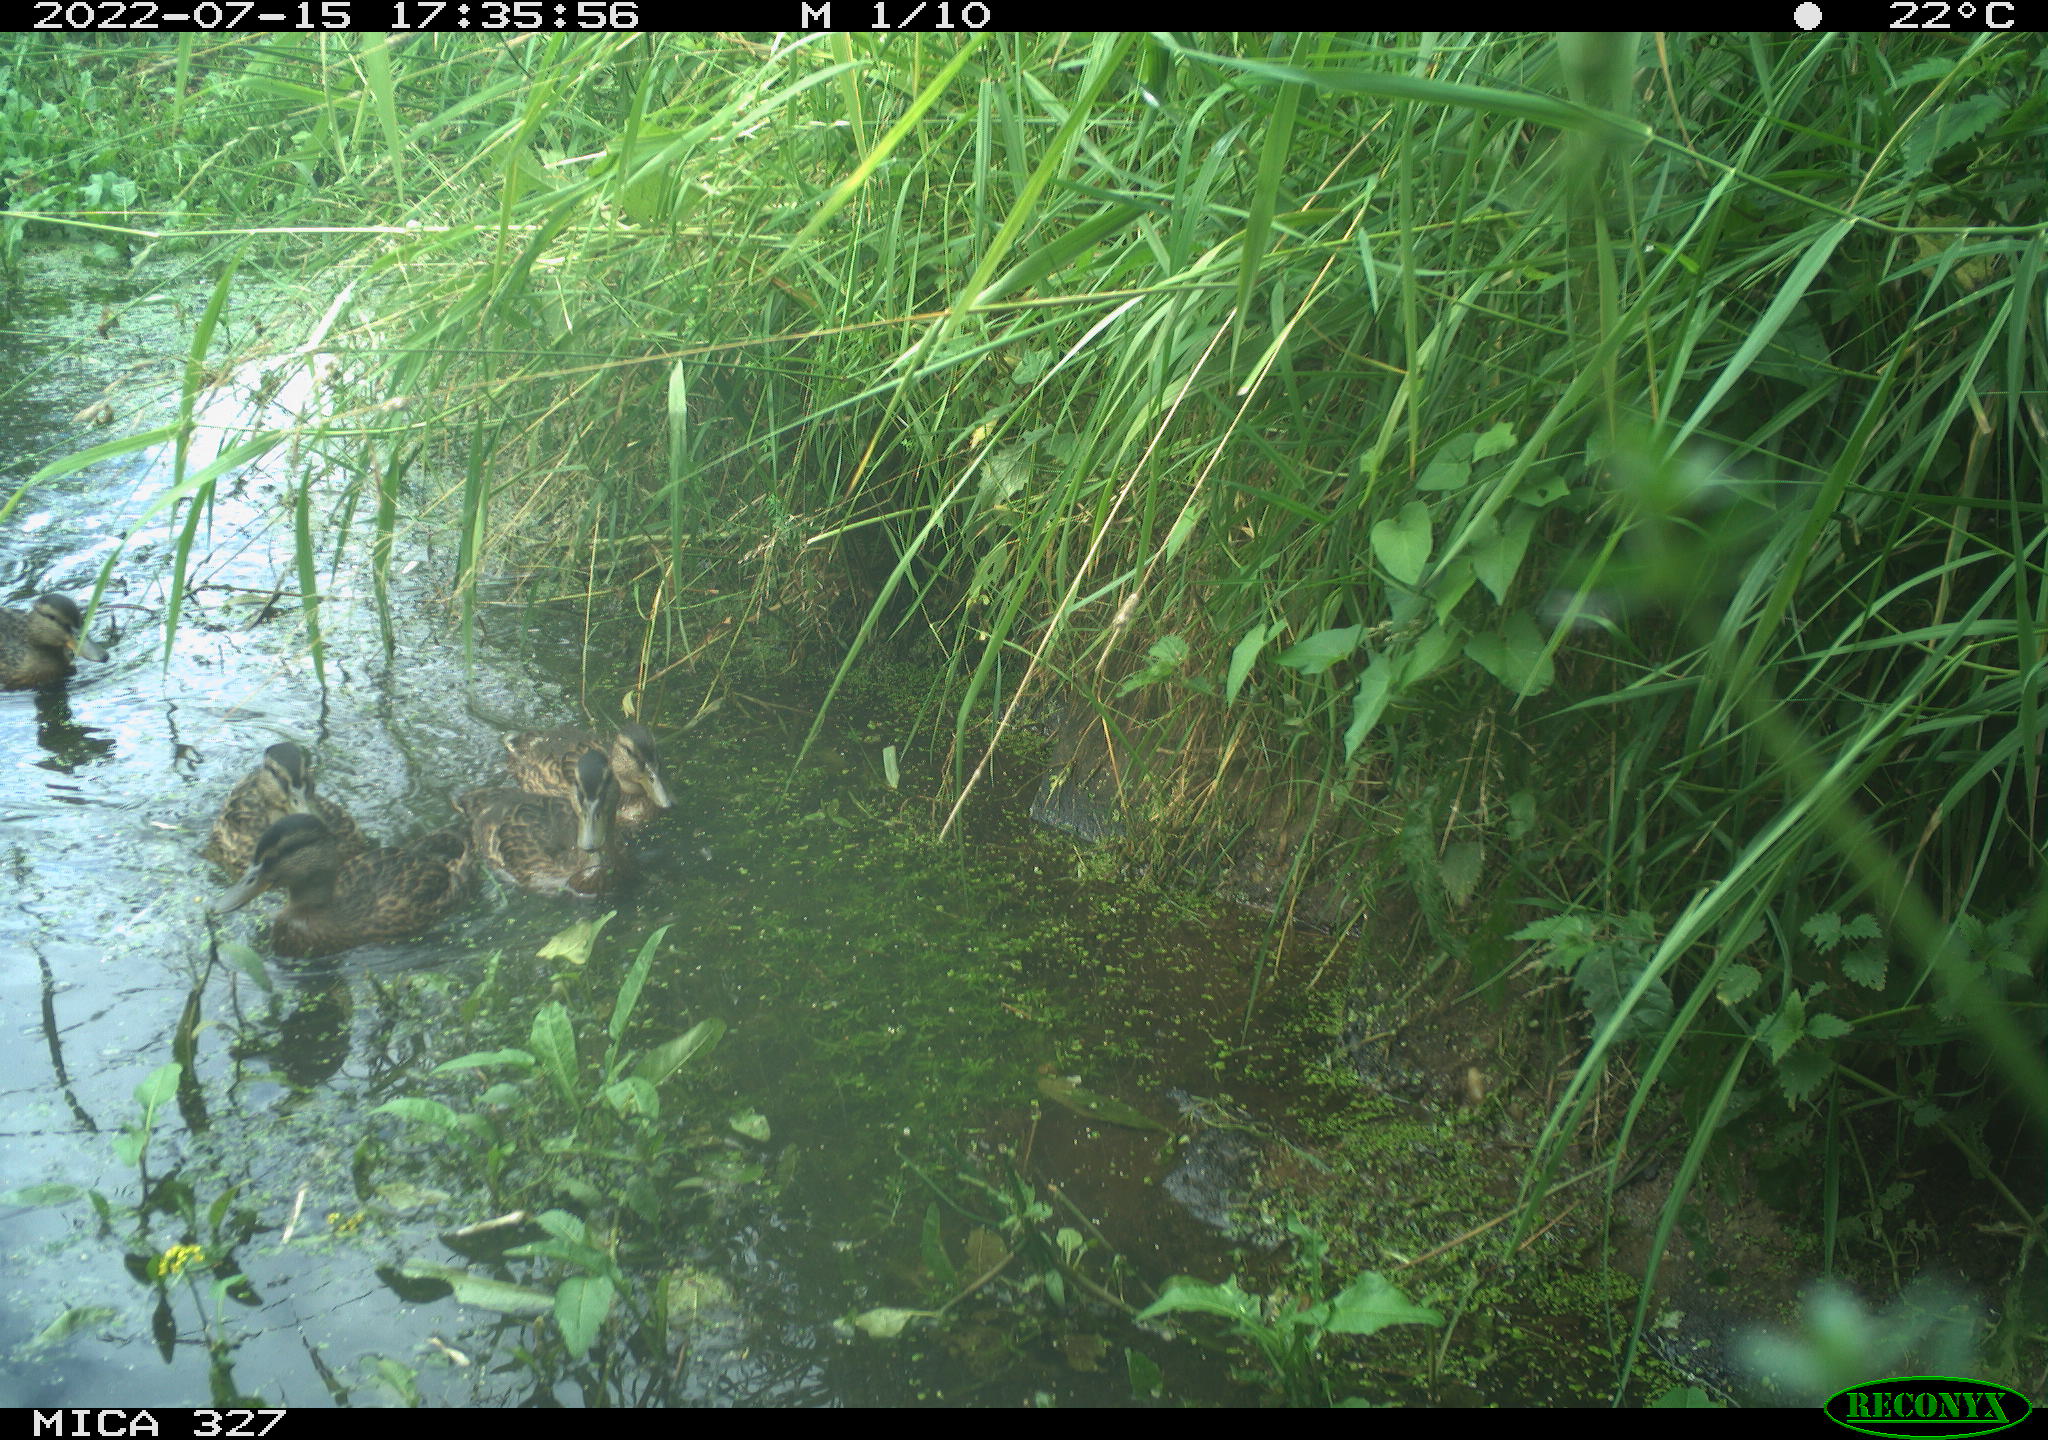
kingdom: Animalia
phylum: Chordata
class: Aves
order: Gruiformes
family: Rallidae
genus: Gallinula
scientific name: Gallinula chloropus
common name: Common moorhen
